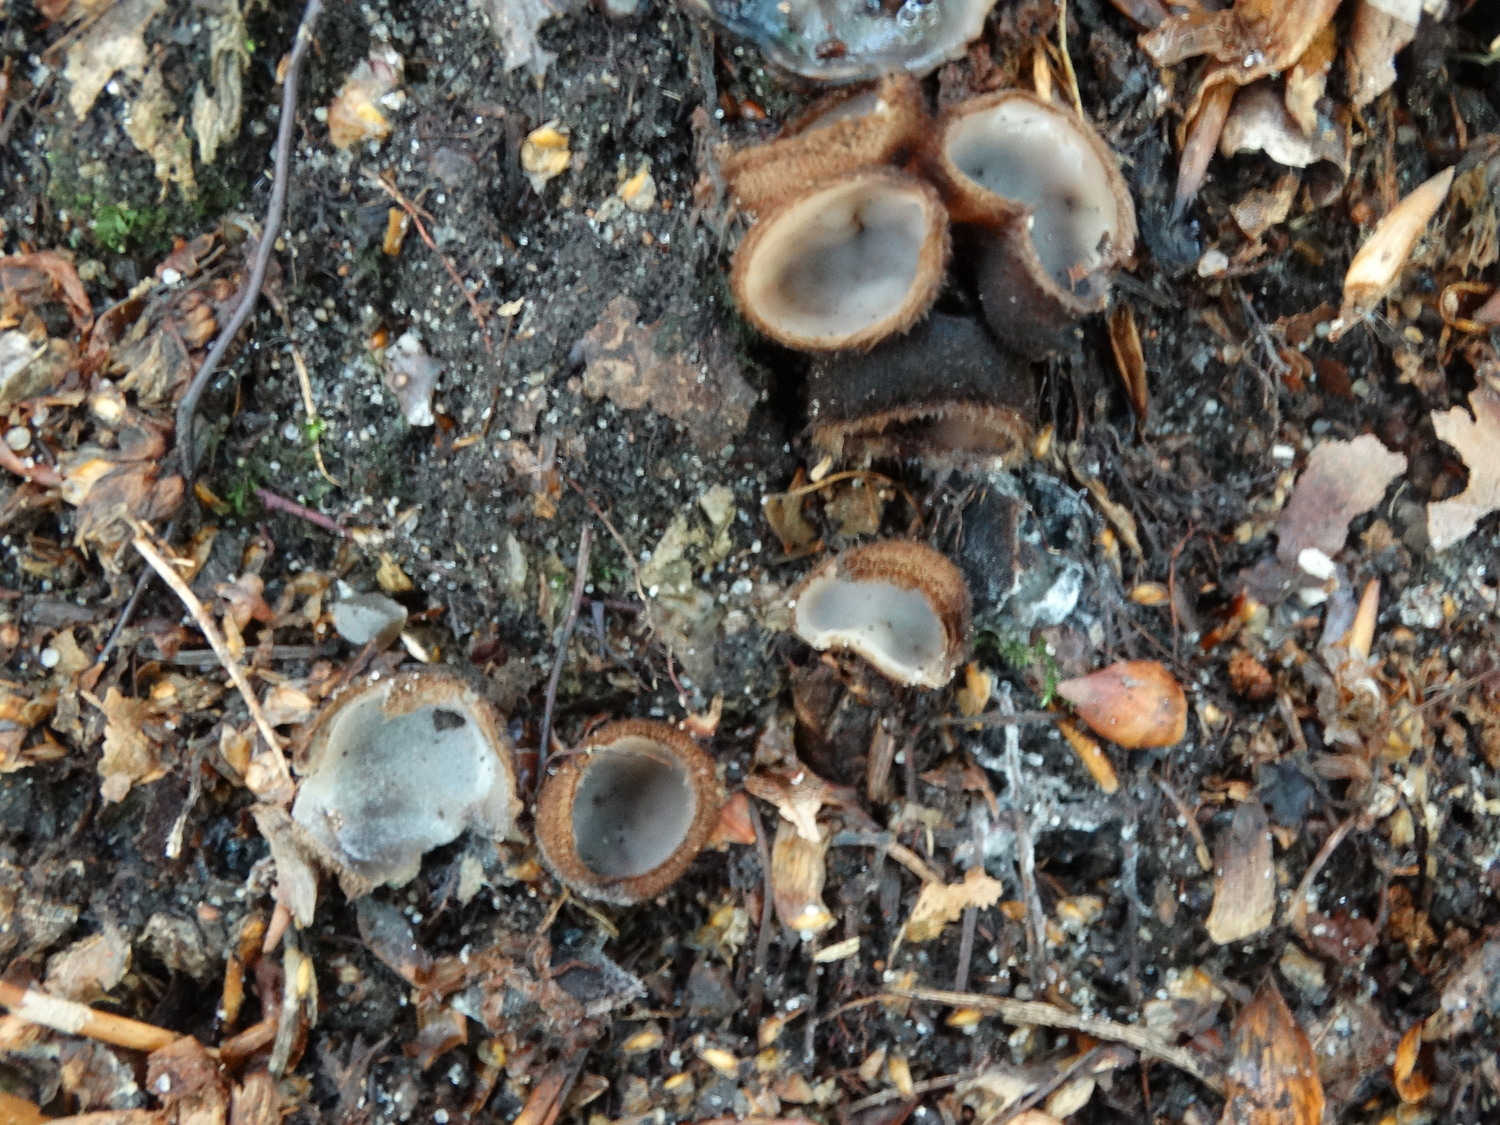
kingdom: Fungi
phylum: Ascomycota
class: Pezizomycetes
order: Pezizales
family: Pyronemataceae
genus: Humaria
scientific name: Humaria hemisphaerica
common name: halvkugleformet børstebæger
